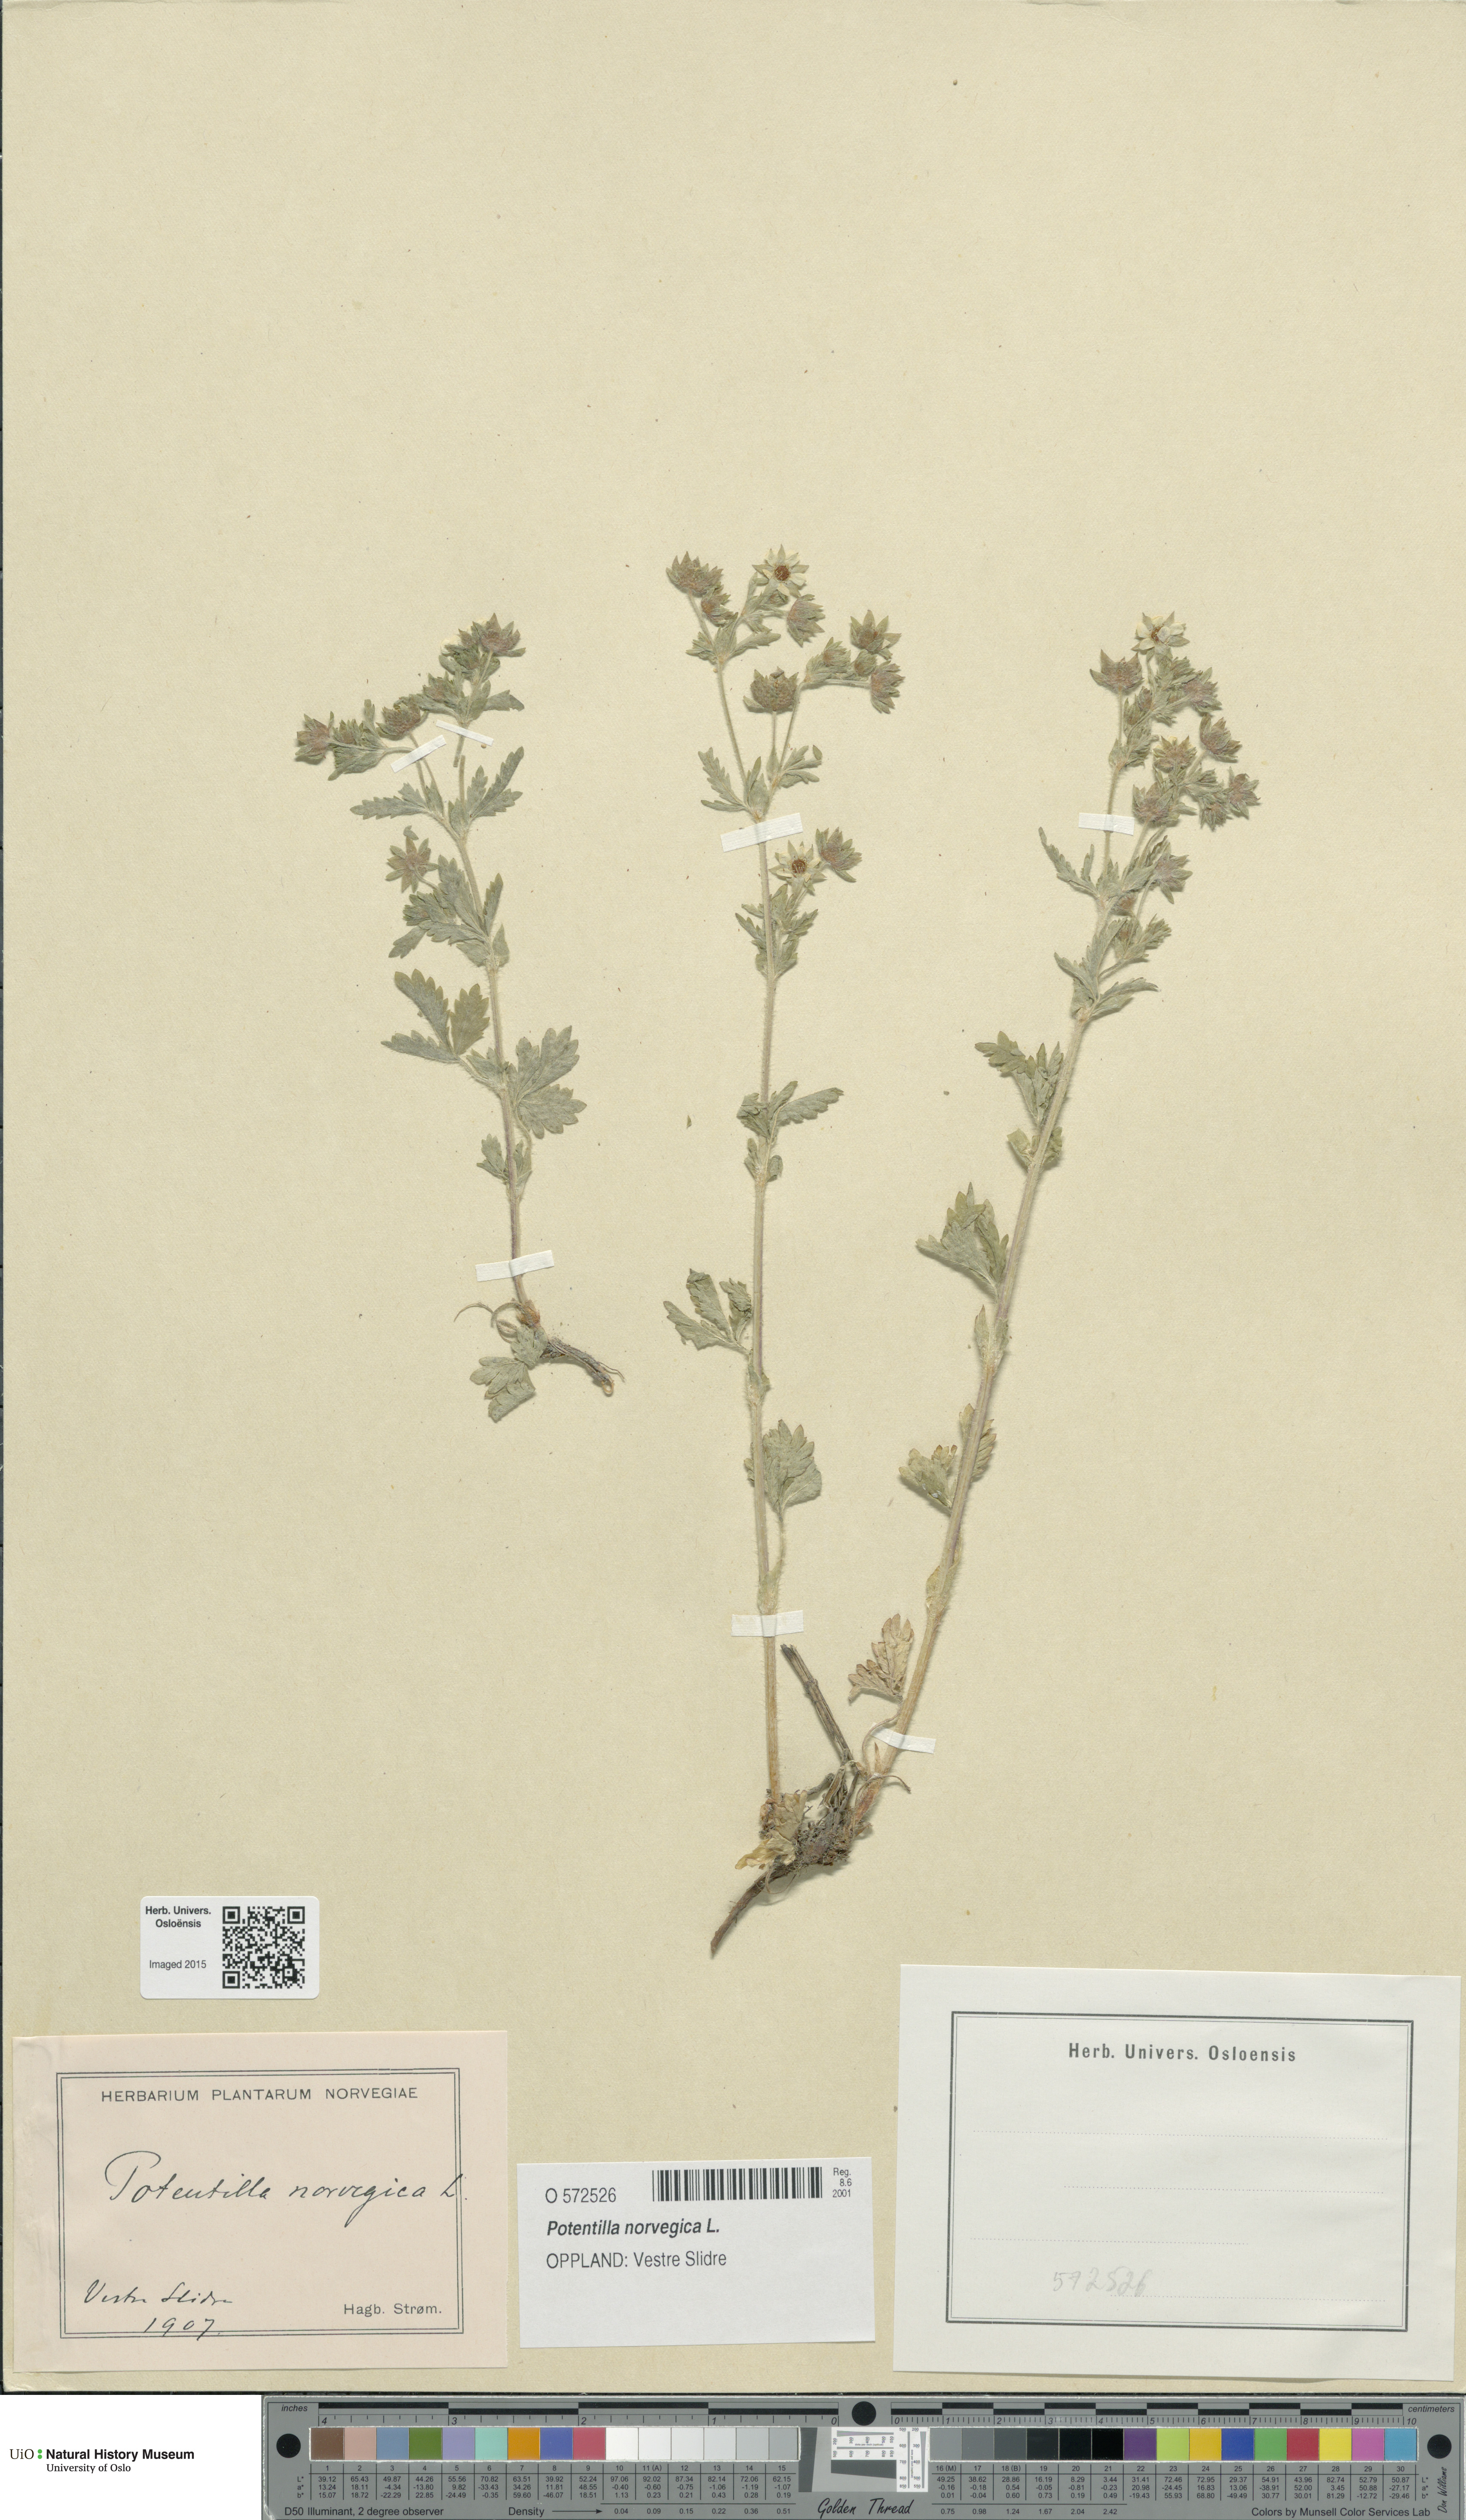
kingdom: Plantae
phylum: Tracheophyta
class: Magnoliopsida
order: Rosales
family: Rosaceae
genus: Potentilla
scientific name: Potentilla norvegica
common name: Ternate-leaved cinquefoil
